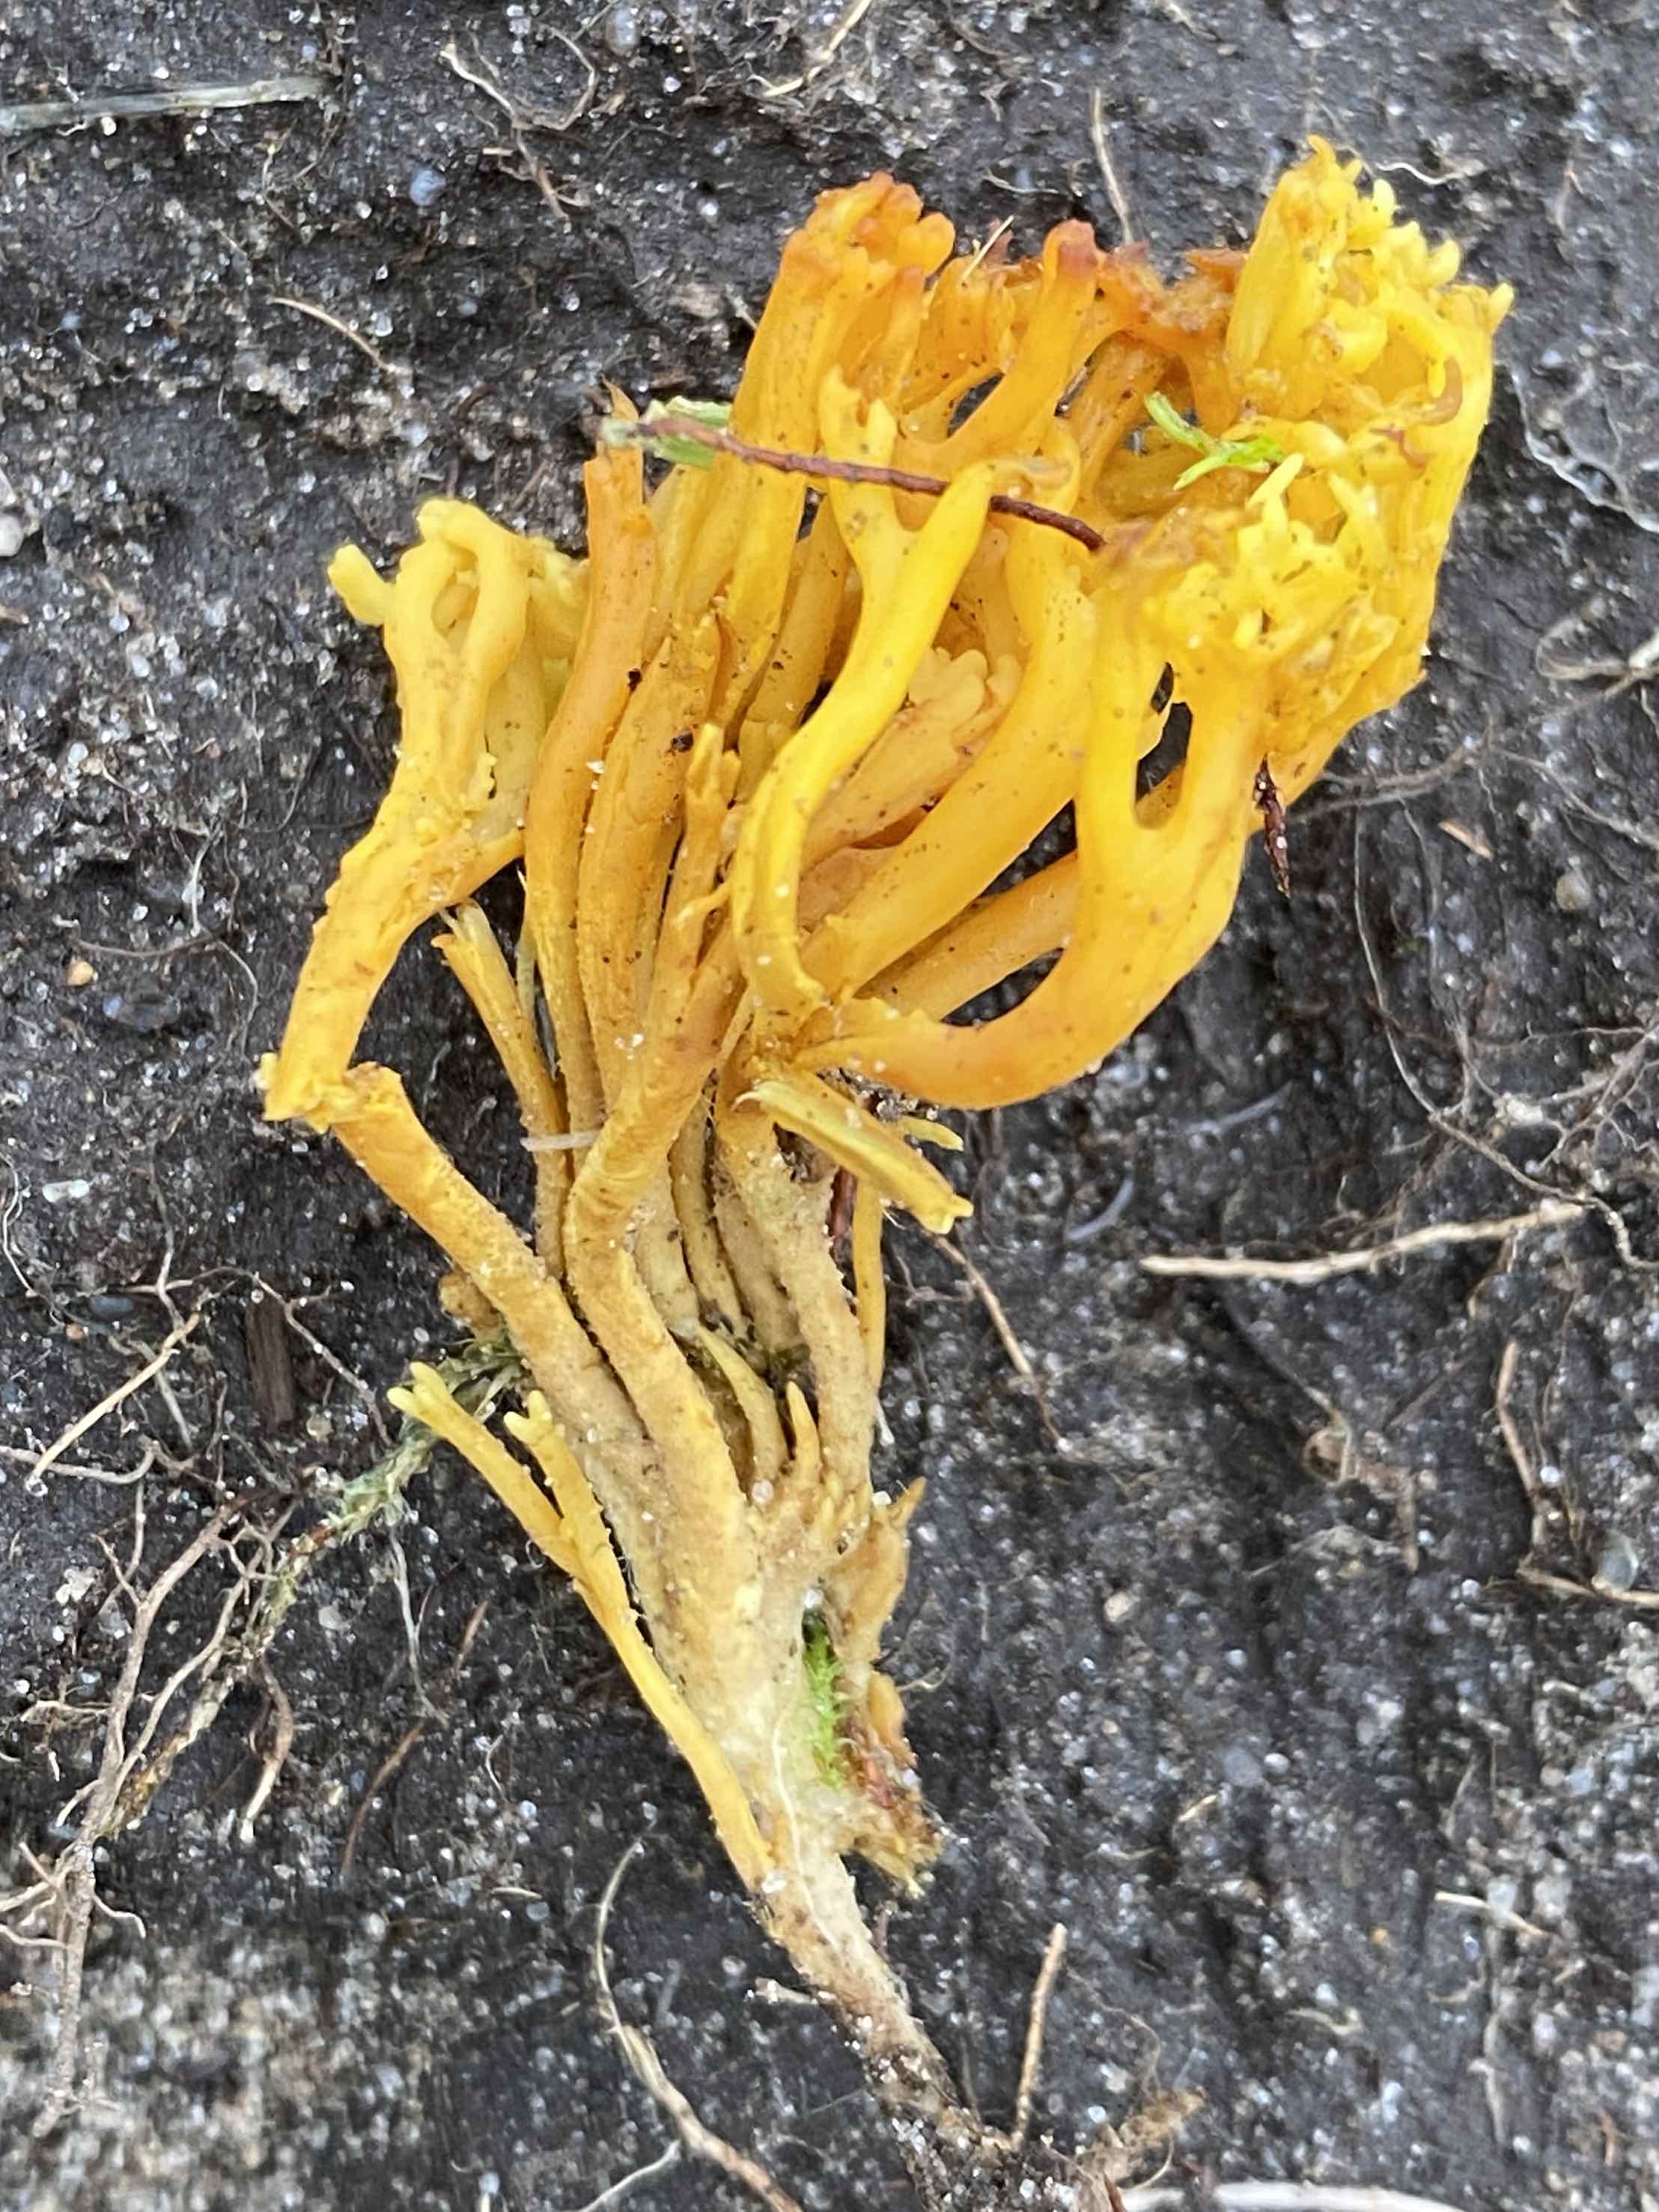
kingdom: Fungi
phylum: Basidiomycota
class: Agaricomycetes
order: Agaricales
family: Clavariaceae
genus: Clavulinopsis
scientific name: Clavulinopsis corniculata
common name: eng-køllesvamp
